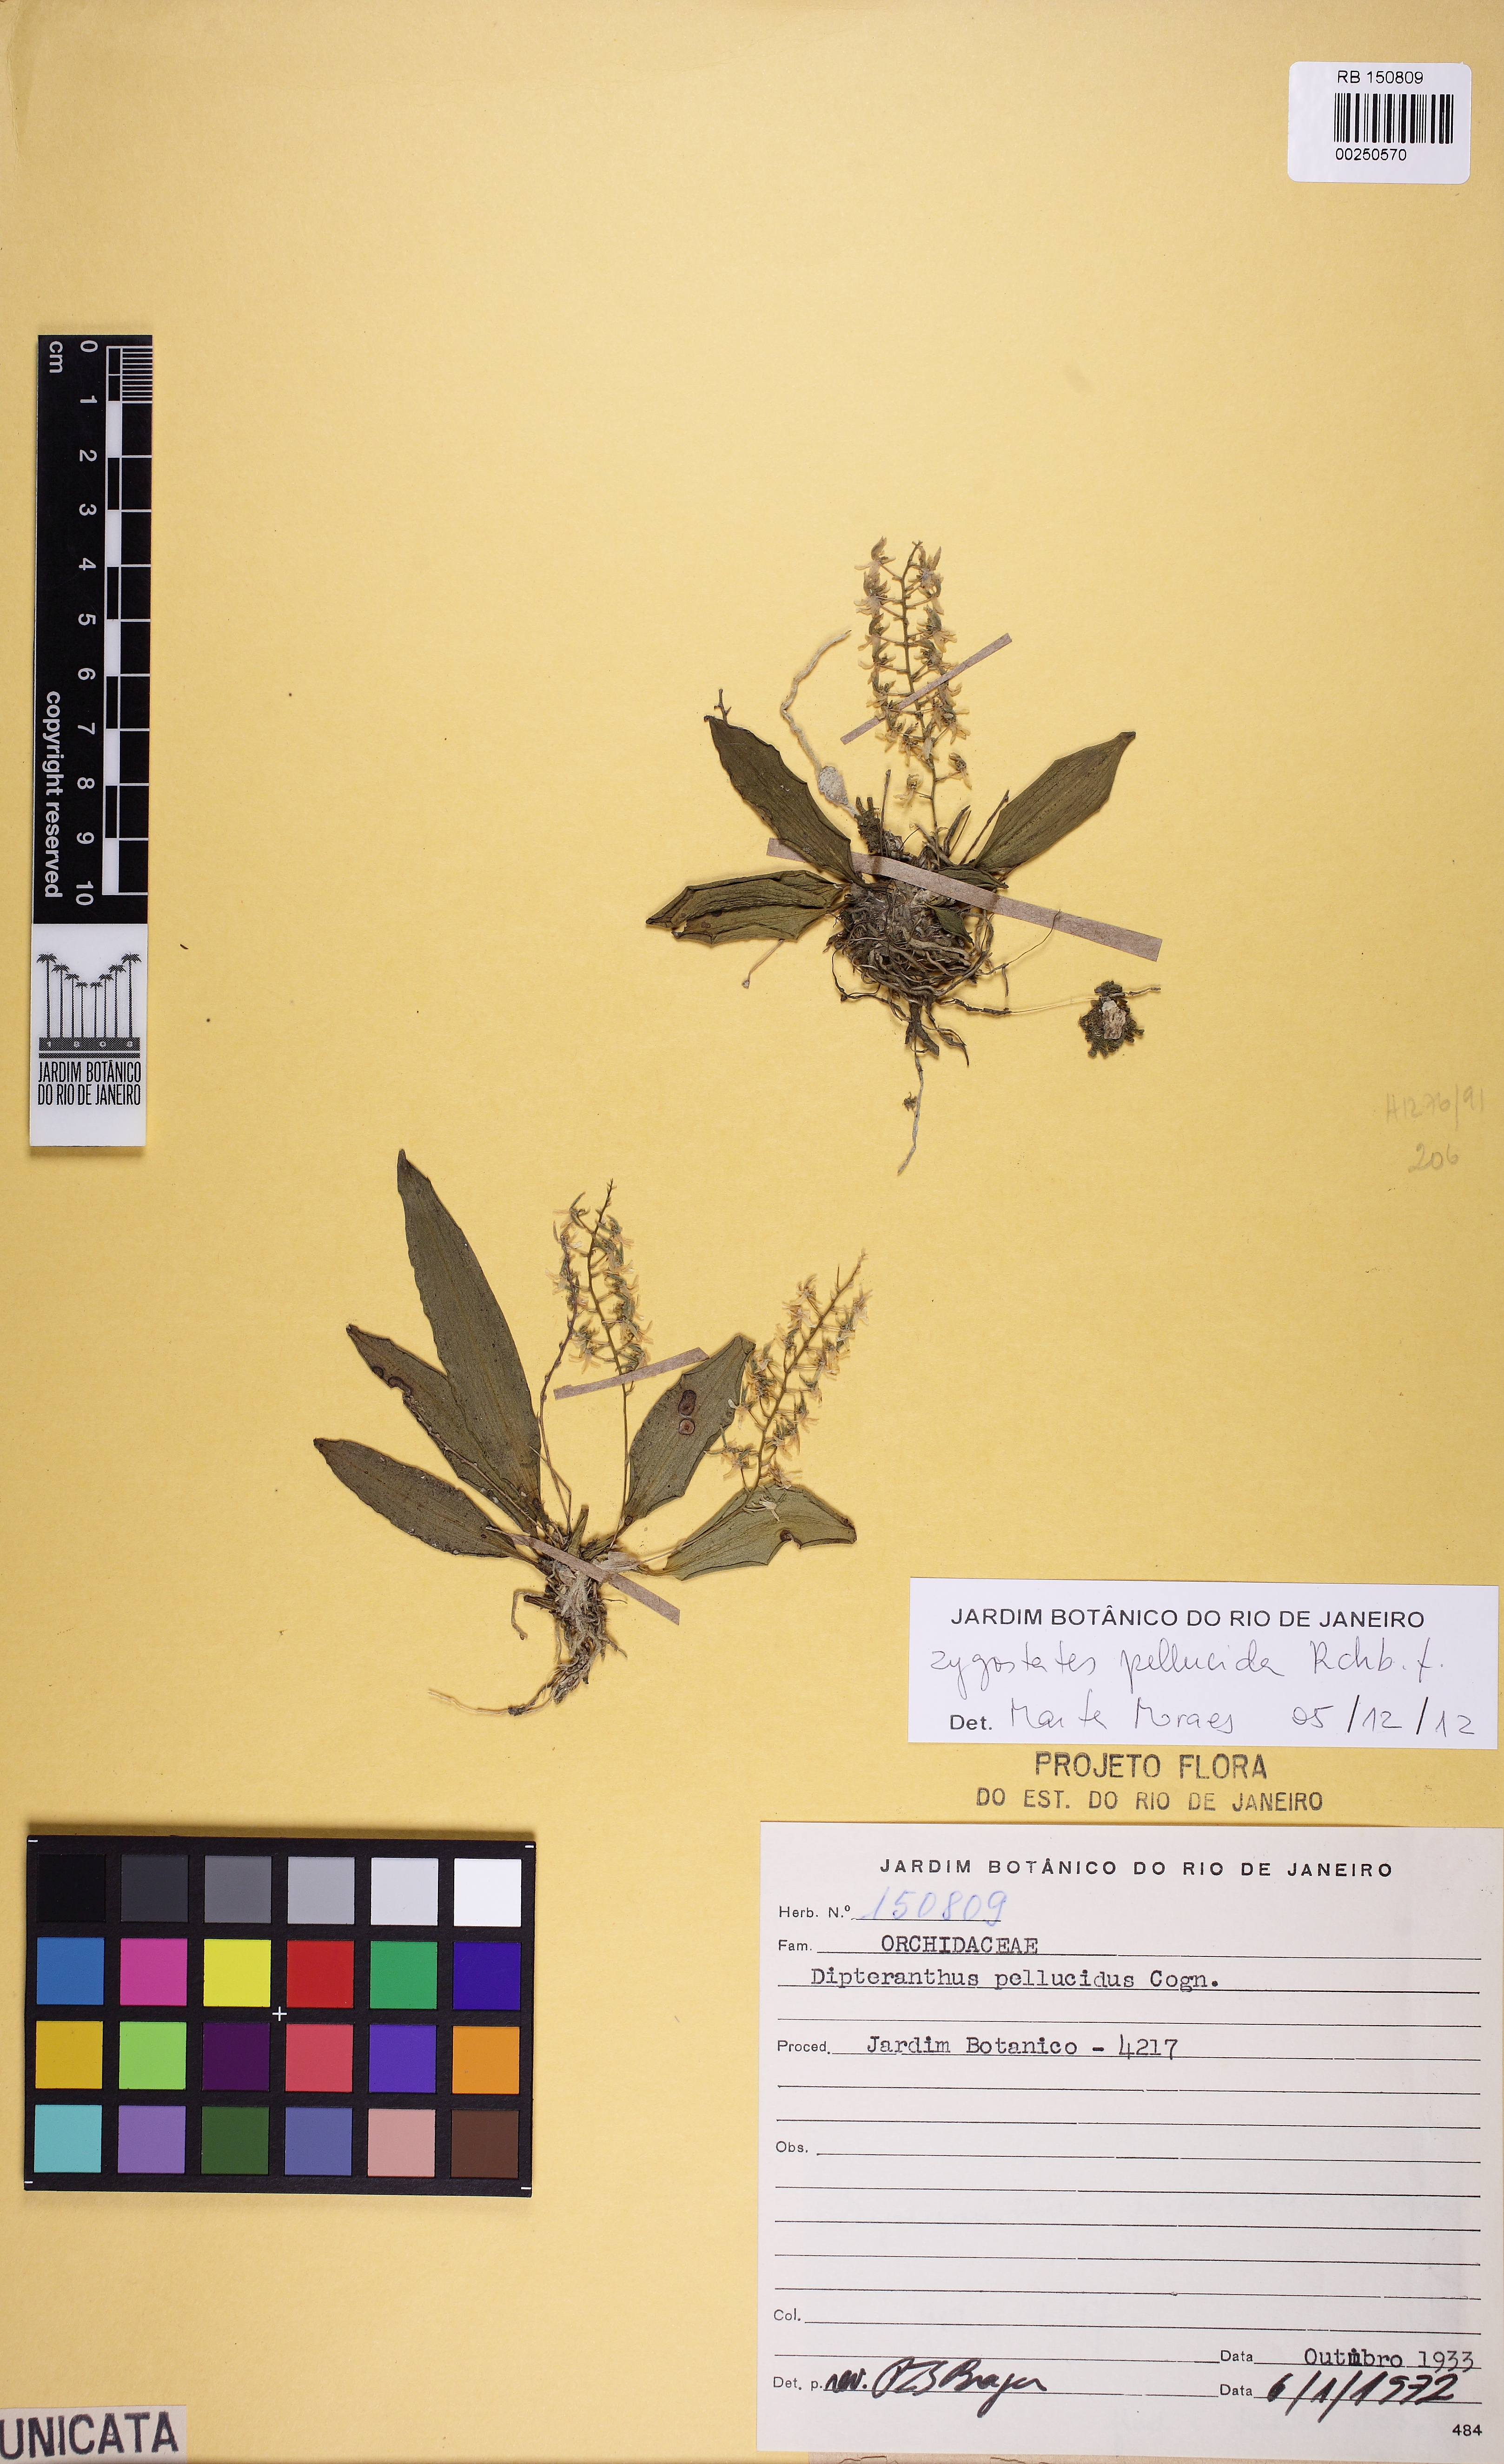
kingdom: Plantae
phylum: Tracheophyta
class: Liliopsida
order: Asparagales
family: Orchidaceae
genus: Zygostates
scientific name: Zygostates pellucida
